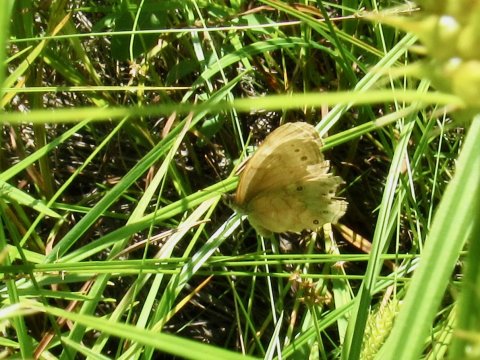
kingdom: Animalia
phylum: Arthropoda
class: Insecta
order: Lepidoptera
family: Nymphalidae
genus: Lethe
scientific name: Lethe eurydice
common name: Eyed Brown
